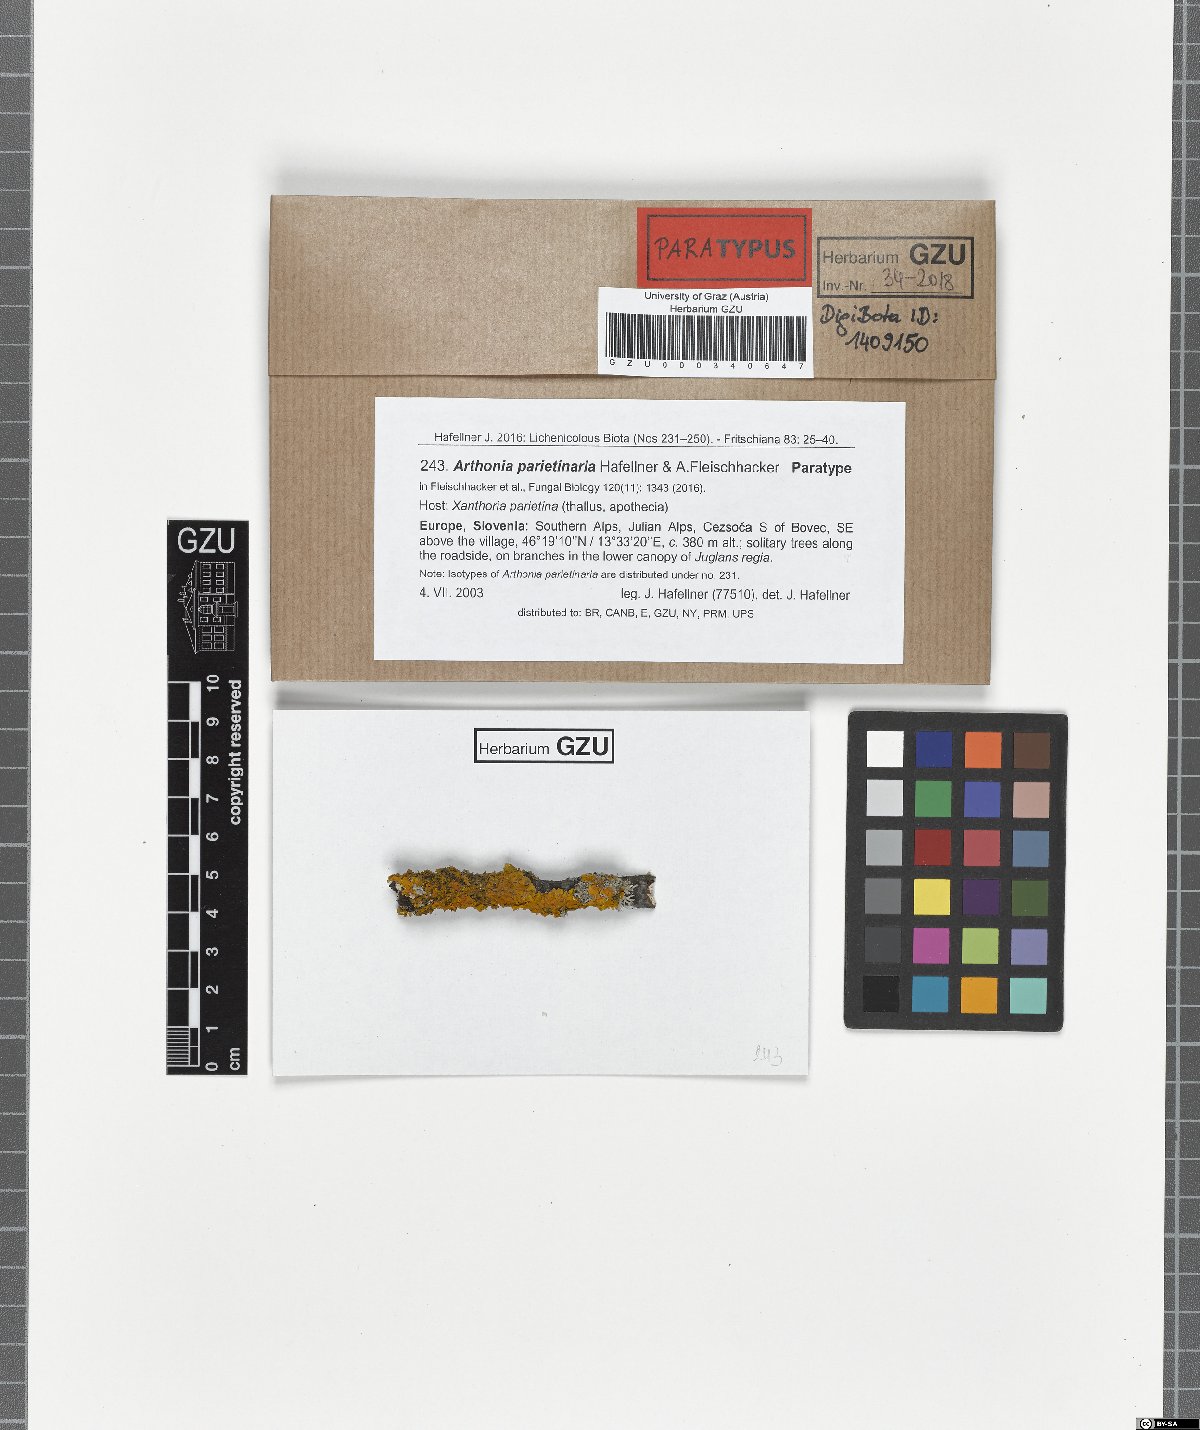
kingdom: Fungi
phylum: Ascomycota
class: Arthoniomycetes
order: Arthoniales
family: Arthoniaceae
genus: Bryostigma
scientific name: Bryostigma parietinarium
